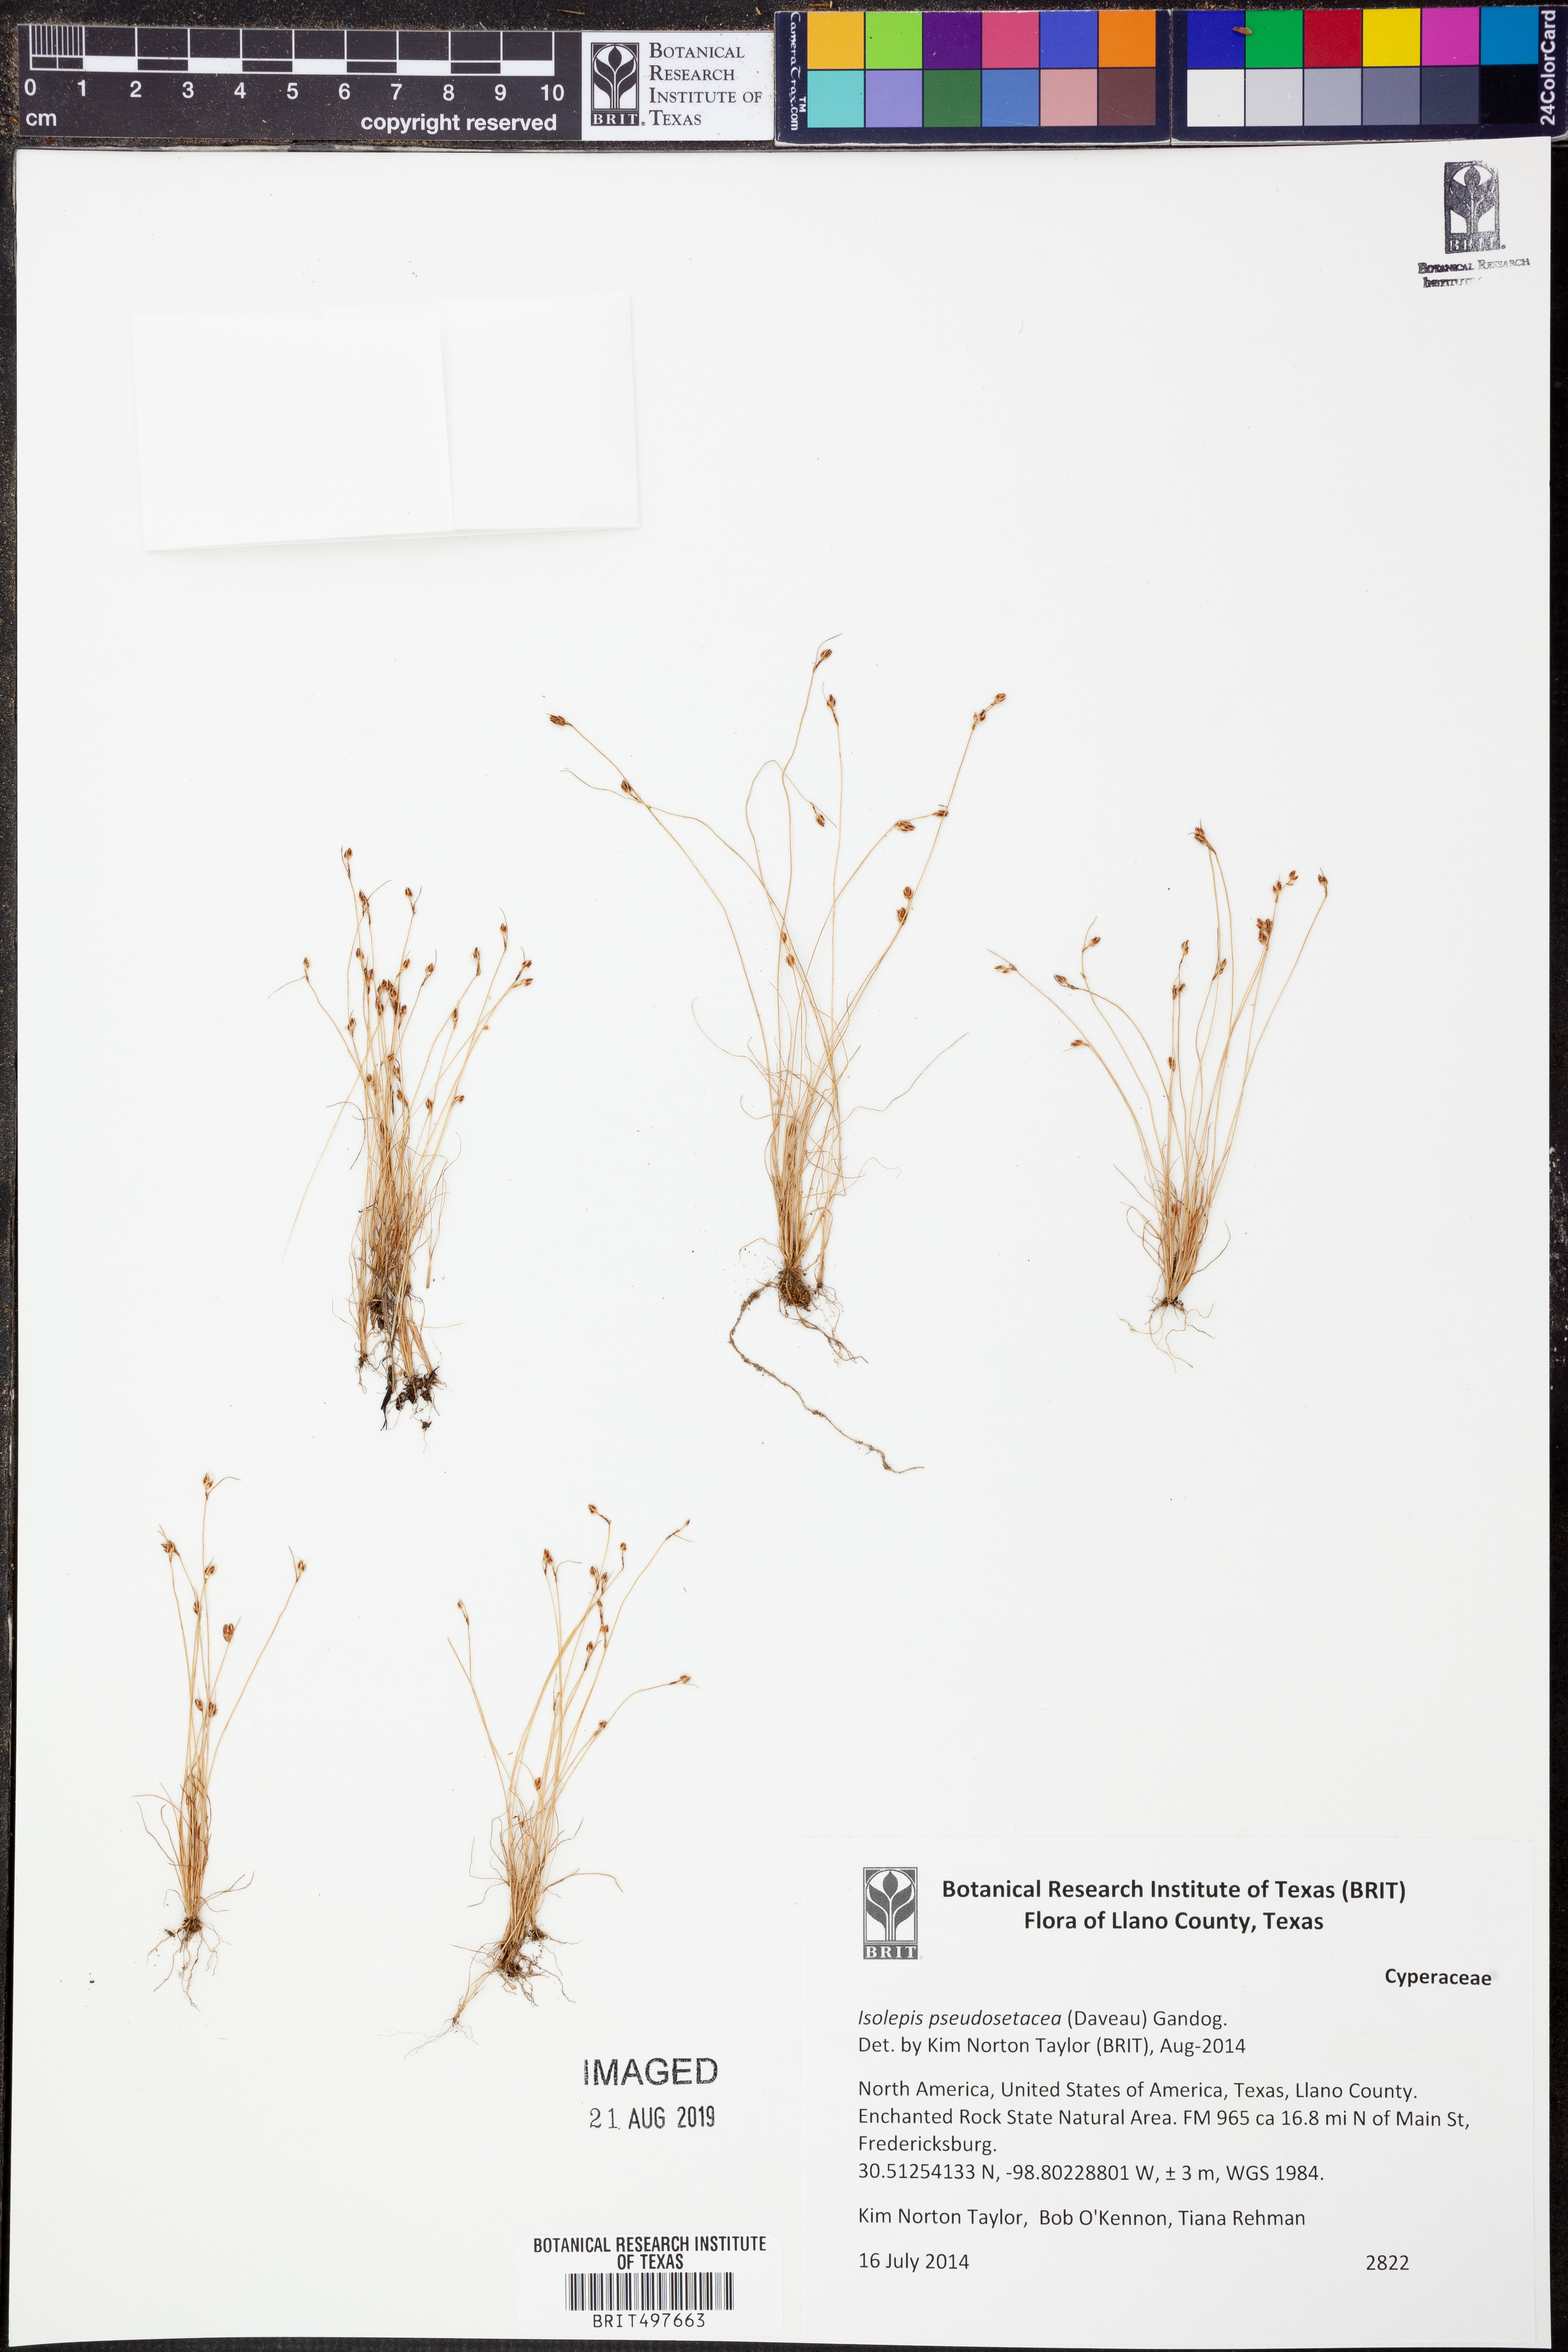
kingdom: Plantae
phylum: Tracheophyta
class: Liliopsida
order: Poales
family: Cyperaceae
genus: Isolepis
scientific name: Isolepis pseudosetacea
